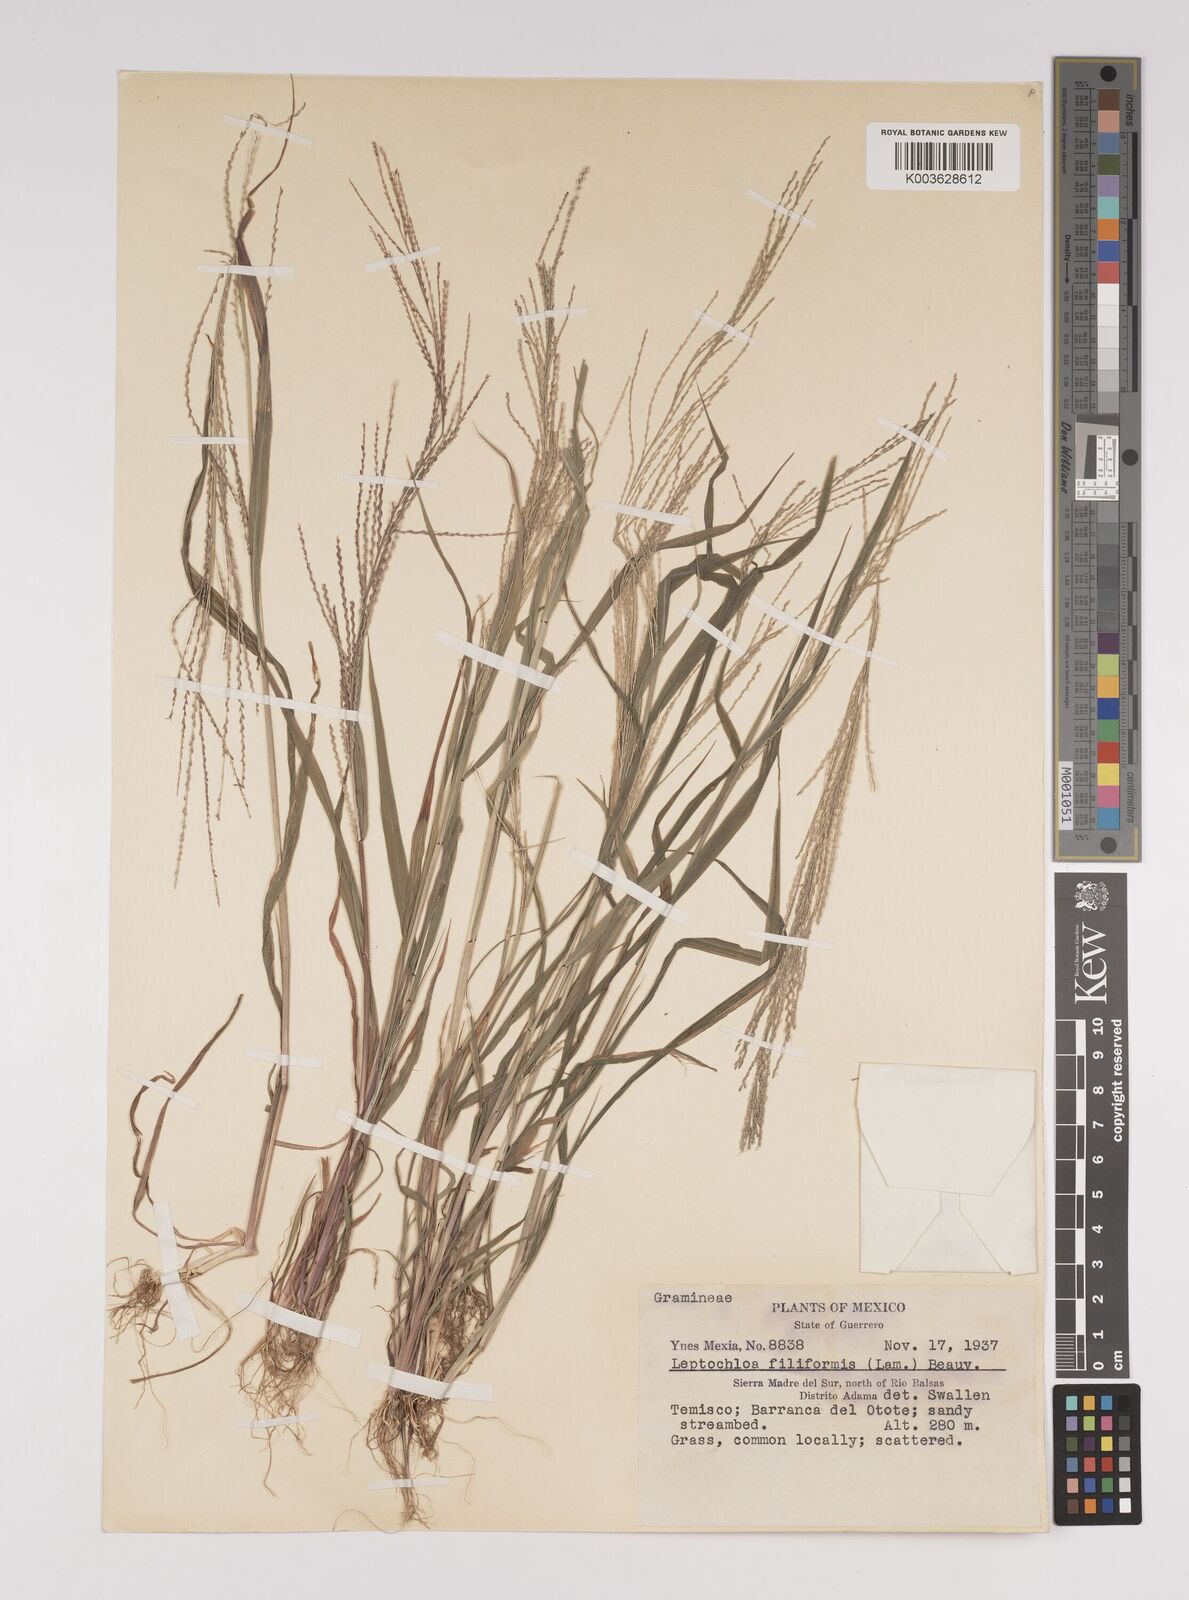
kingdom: Plantae
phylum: Tracheophyta
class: Liliopsida
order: Poales
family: Poaceae
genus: Leptochloa
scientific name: Leptochloa panicea
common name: Mucronate sprangletop
